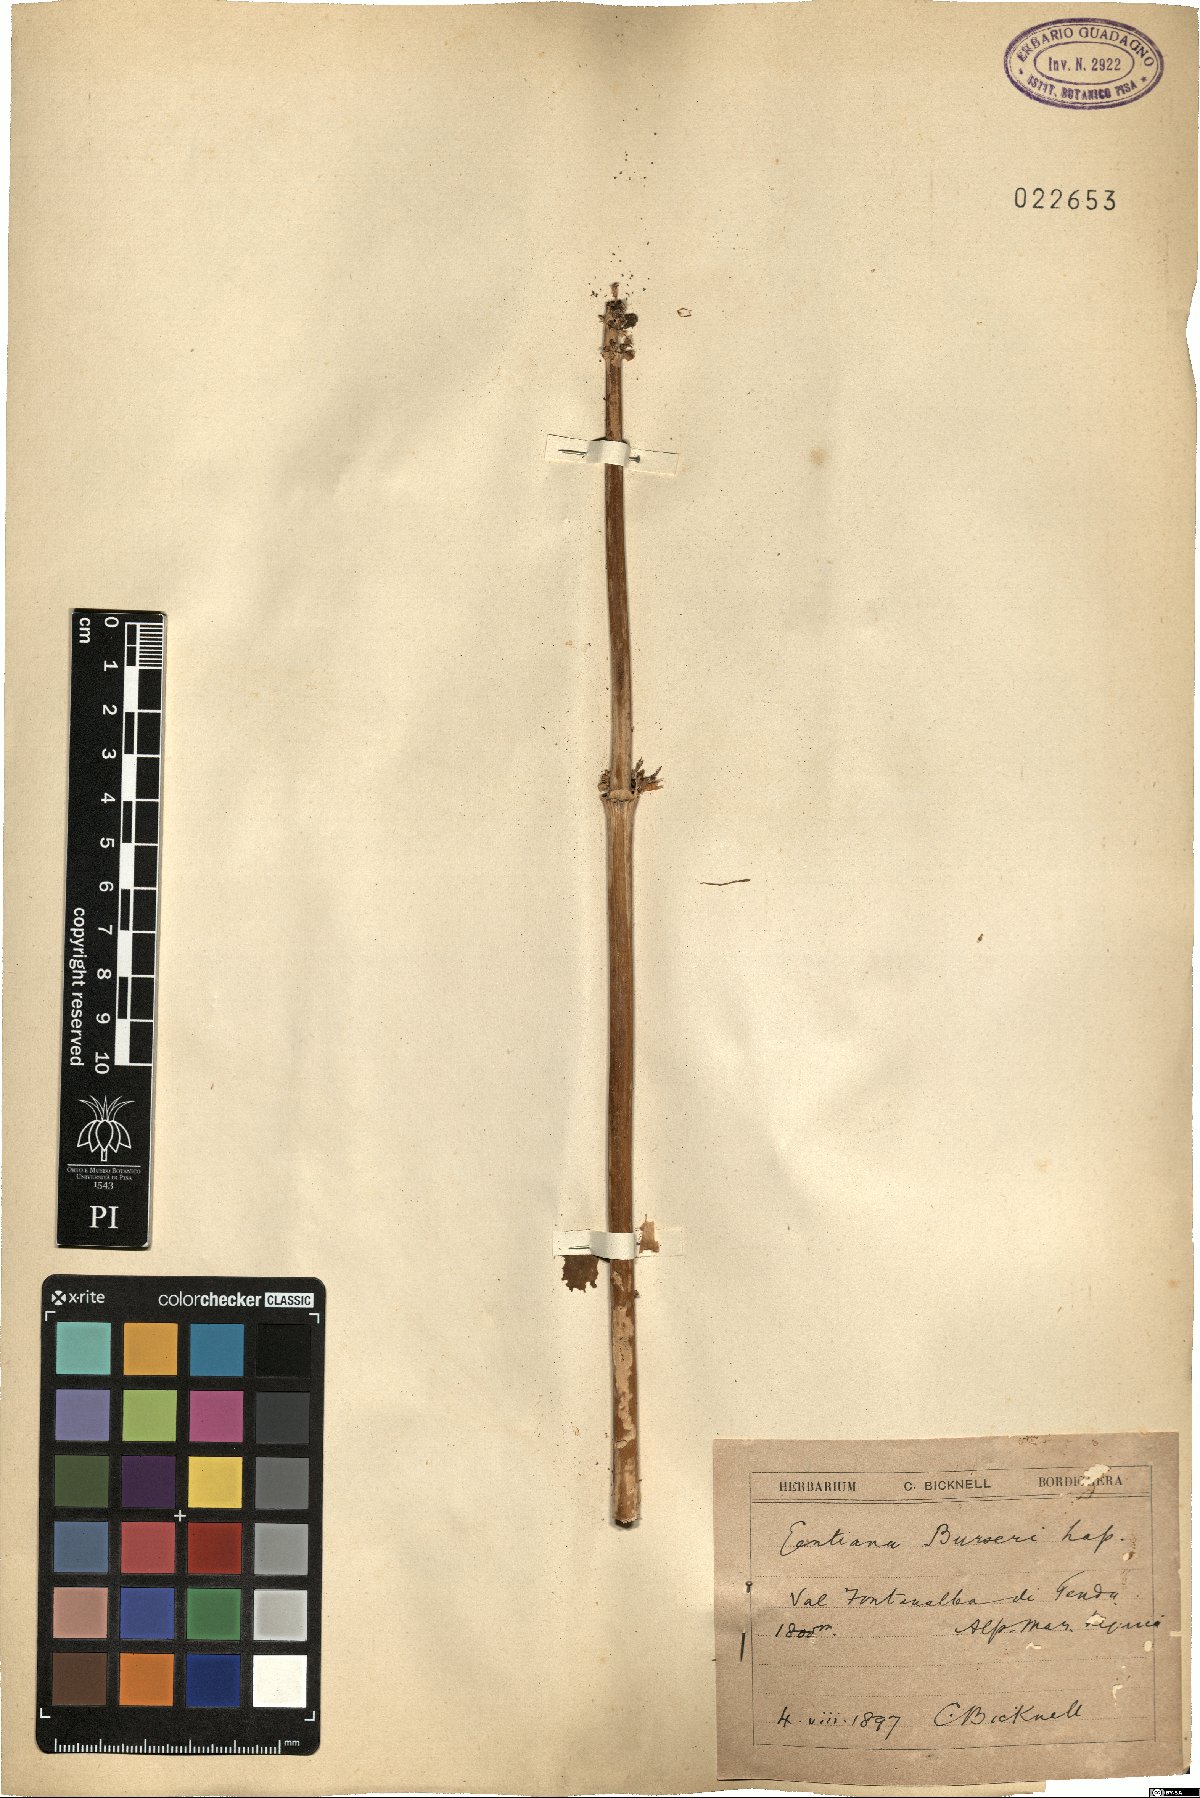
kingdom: Plantae
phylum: Tracheophyta
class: Magnoliopsida
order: Gentianales
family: Gentianaceae
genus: Gentiana
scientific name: Gentiana burseri
